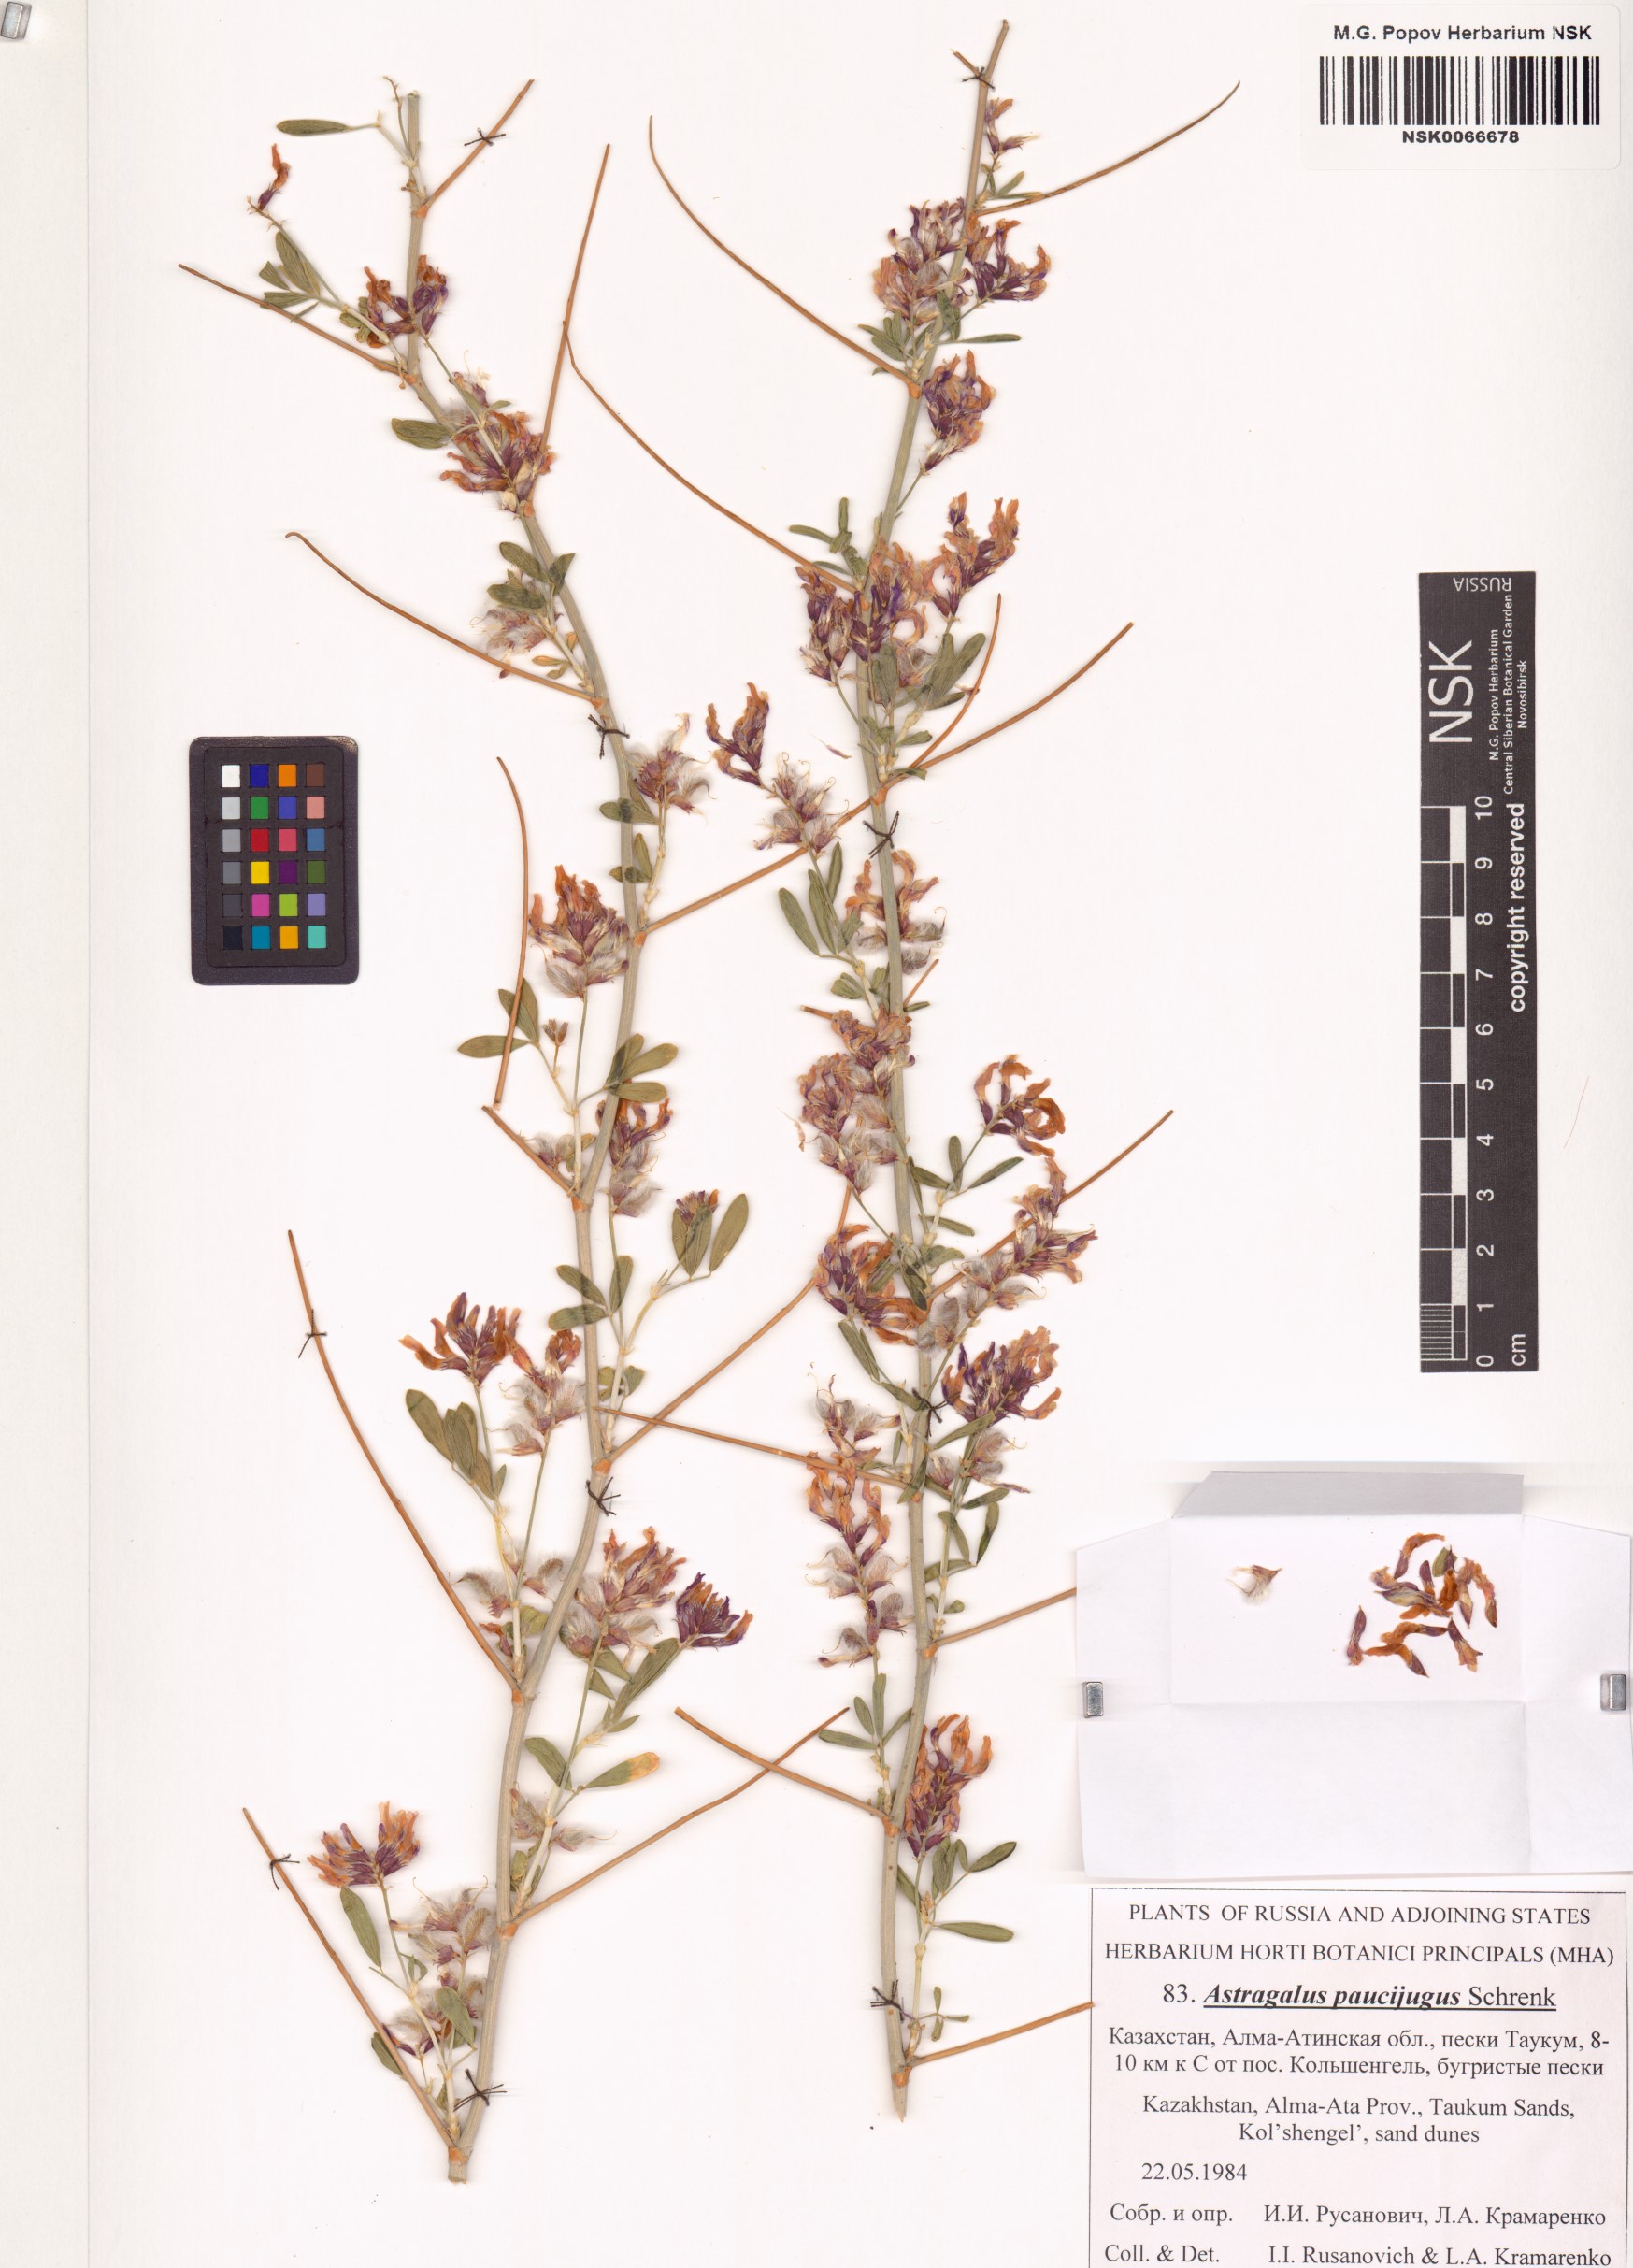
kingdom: Plantae
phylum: Tracheophyta
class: Magnoliopsida
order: Fabales
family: Fabaceae
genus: Astragalus
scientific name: Astragalus paucijugus
